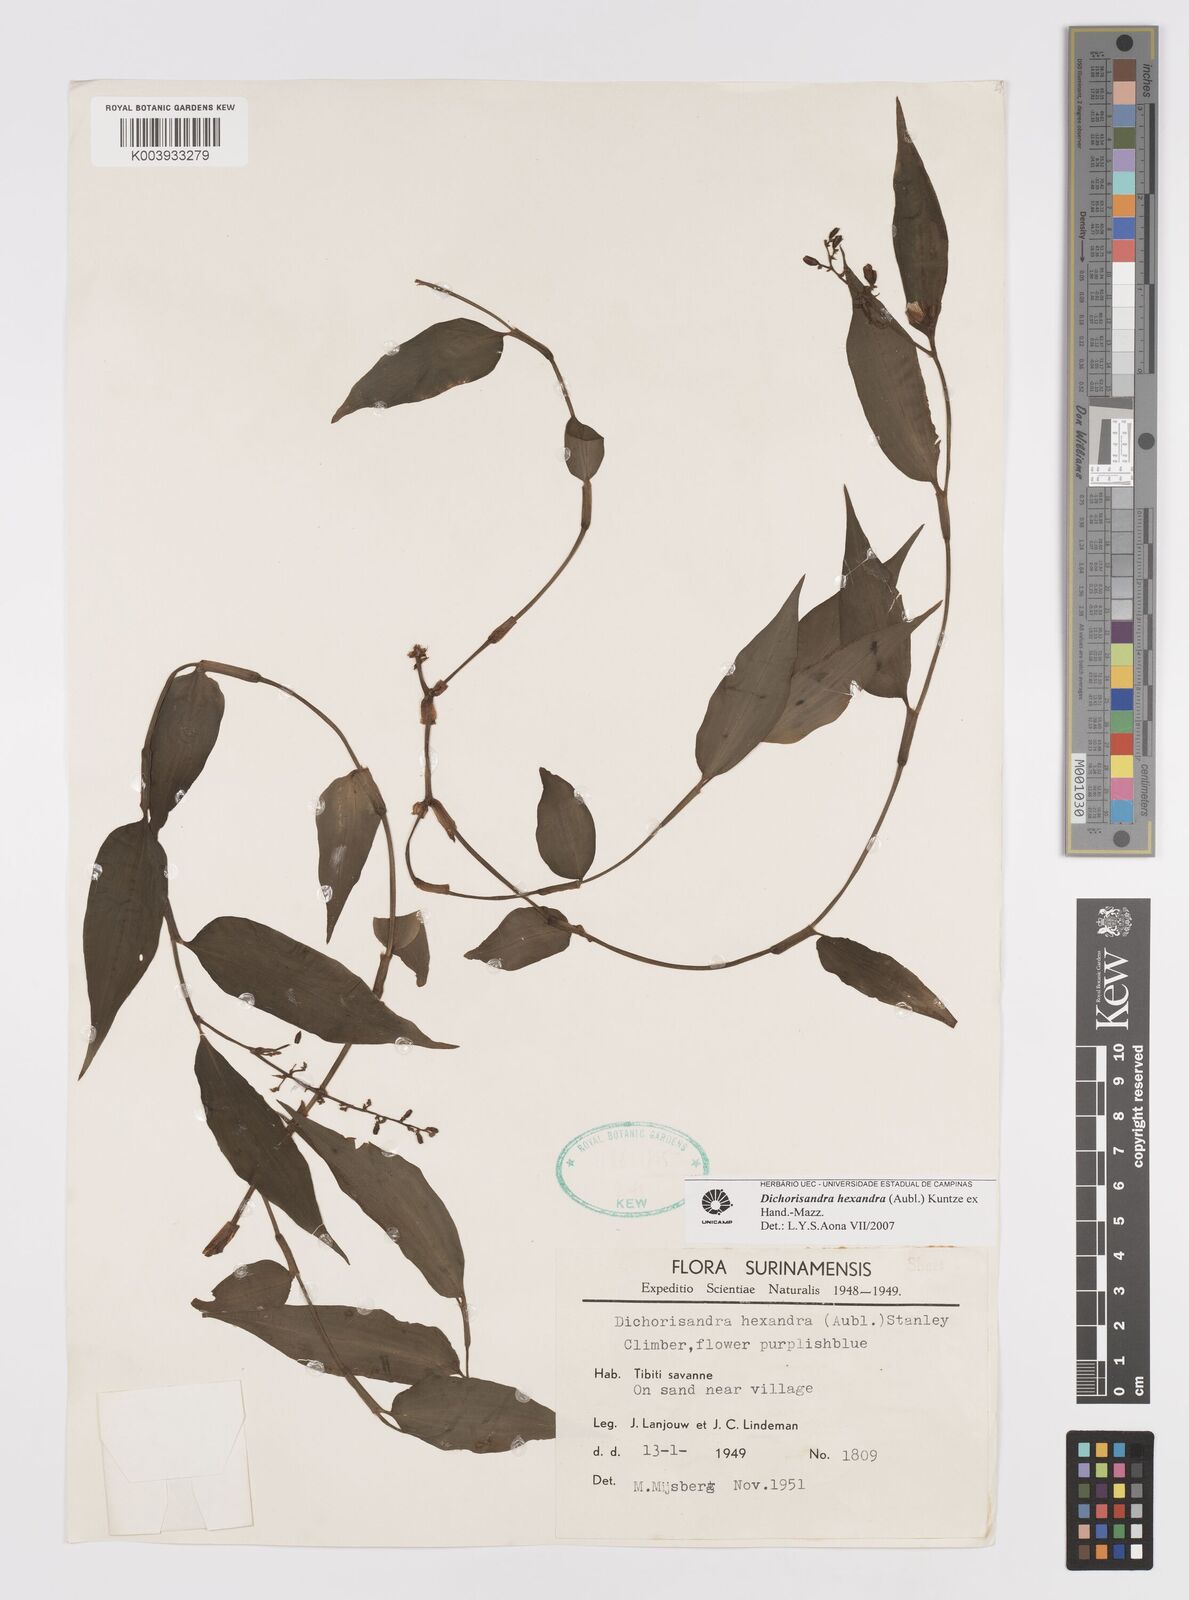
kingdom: Plantae
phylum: Tracheophyta
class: Liliopsida
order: Commelinales
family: Commelinaceae
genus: Dichorisandra
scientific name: Dichorisandra hexandra
